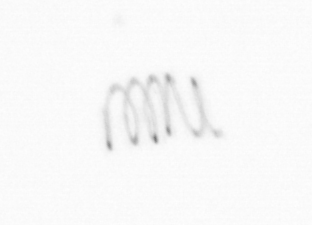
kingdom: Chromista
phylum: Ochrophyta
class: Bacillariophyceae
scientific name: Bacillariophyceae
